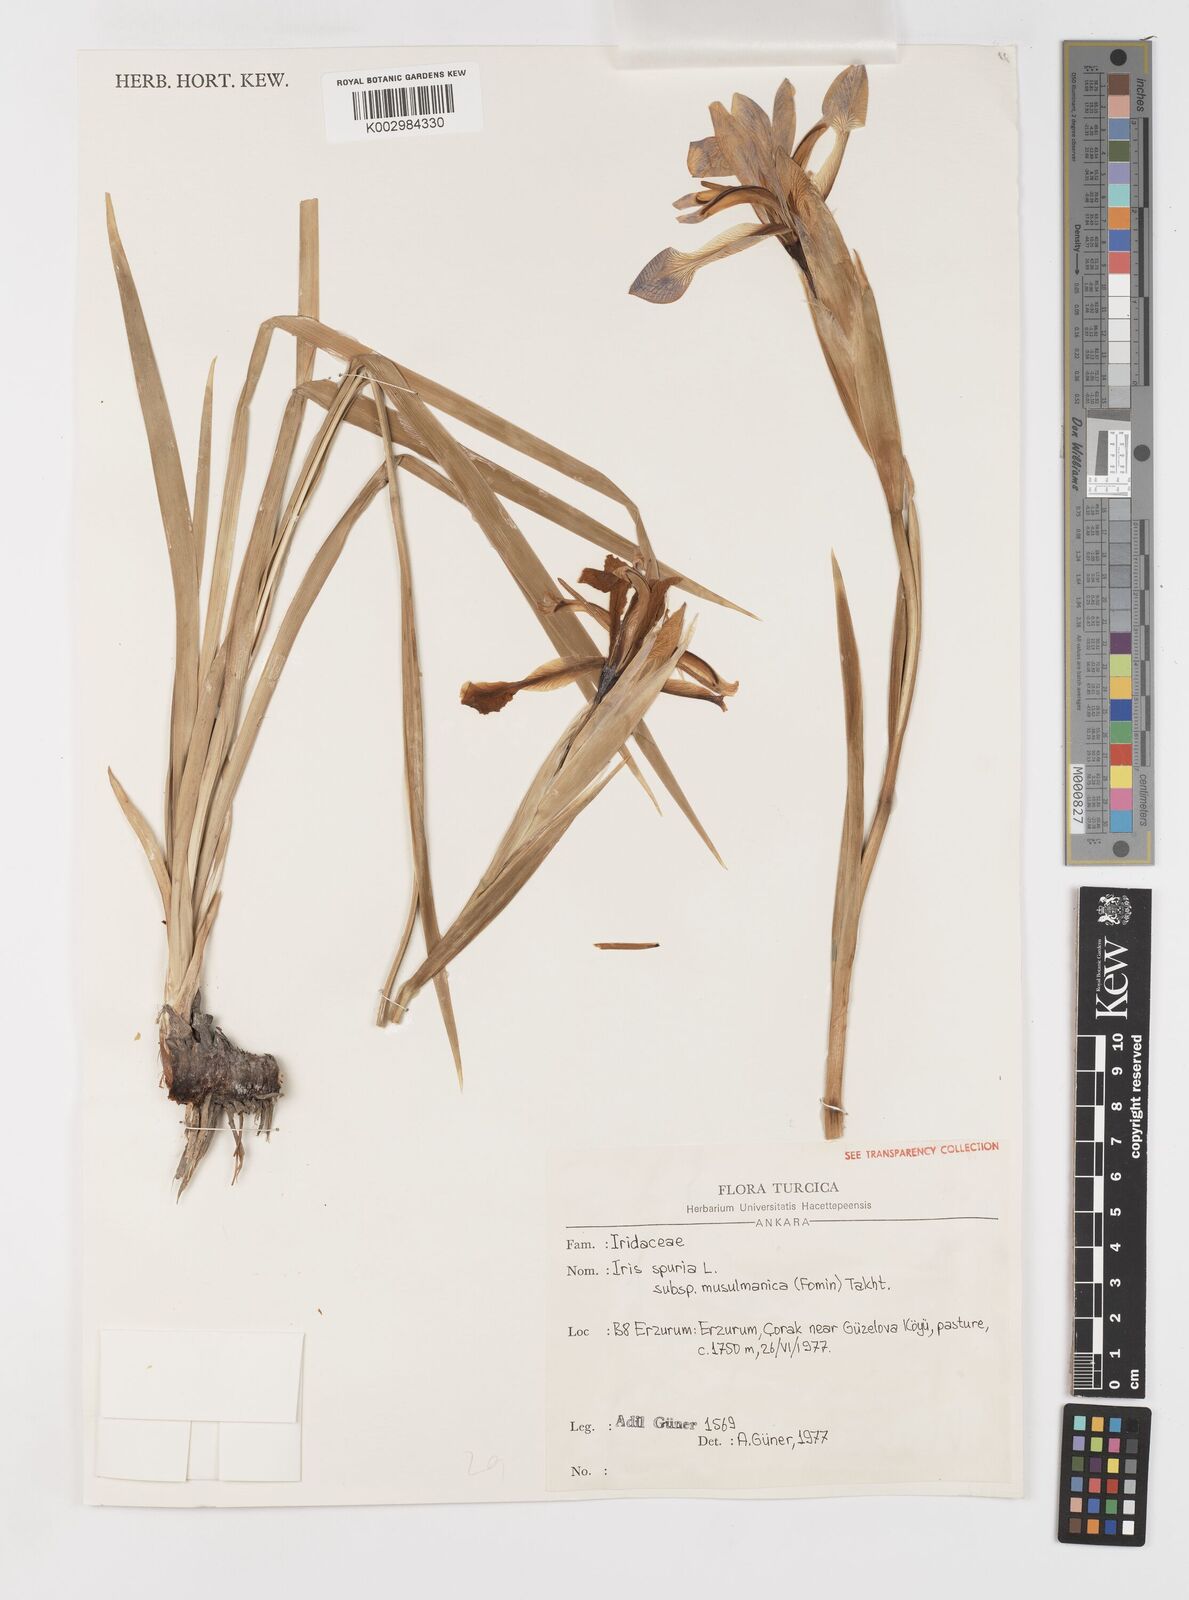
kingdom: Plantae
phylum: Tracheophyta
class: Liliopsida
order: Asparagales
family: Iridaceae
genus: Iris
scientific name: Iris spuria
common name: Blue iris
